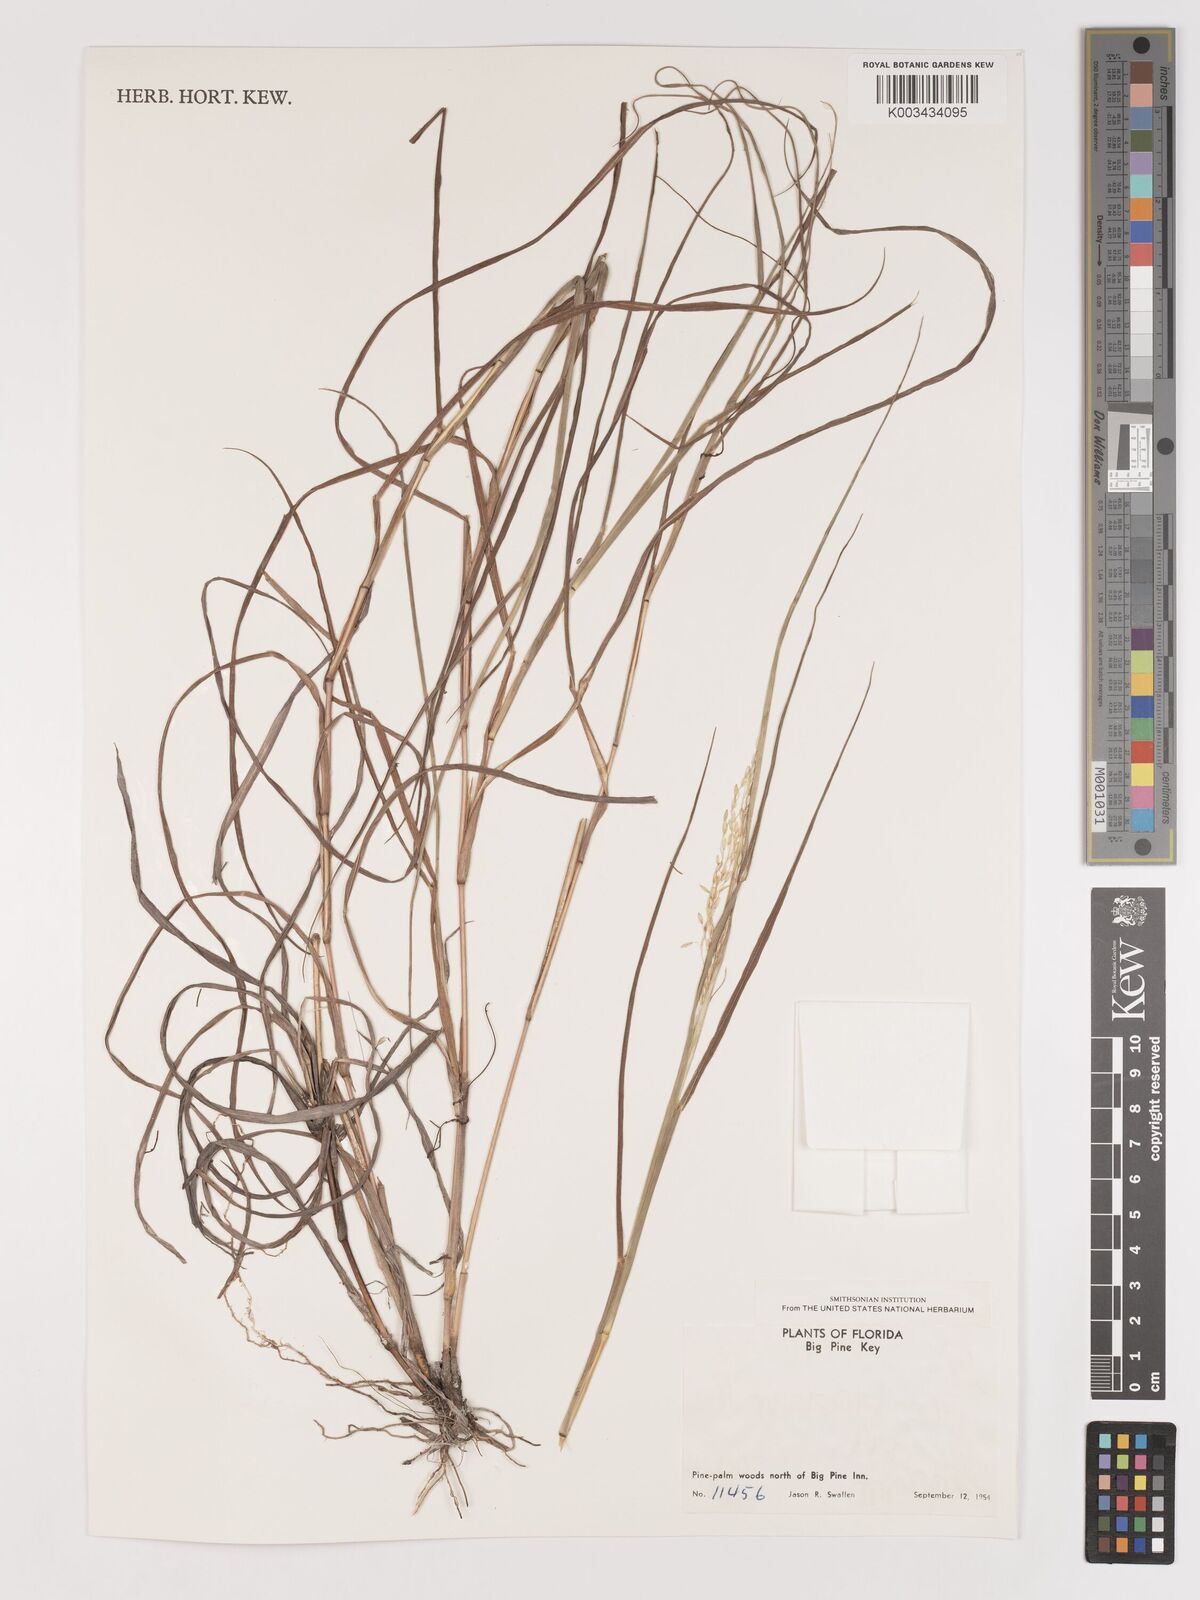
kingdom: Plantae
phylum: Tracheophyta
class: Liliopsida
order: Poales
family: Poaceae
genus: Digitaria
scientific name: Digitaria spec
